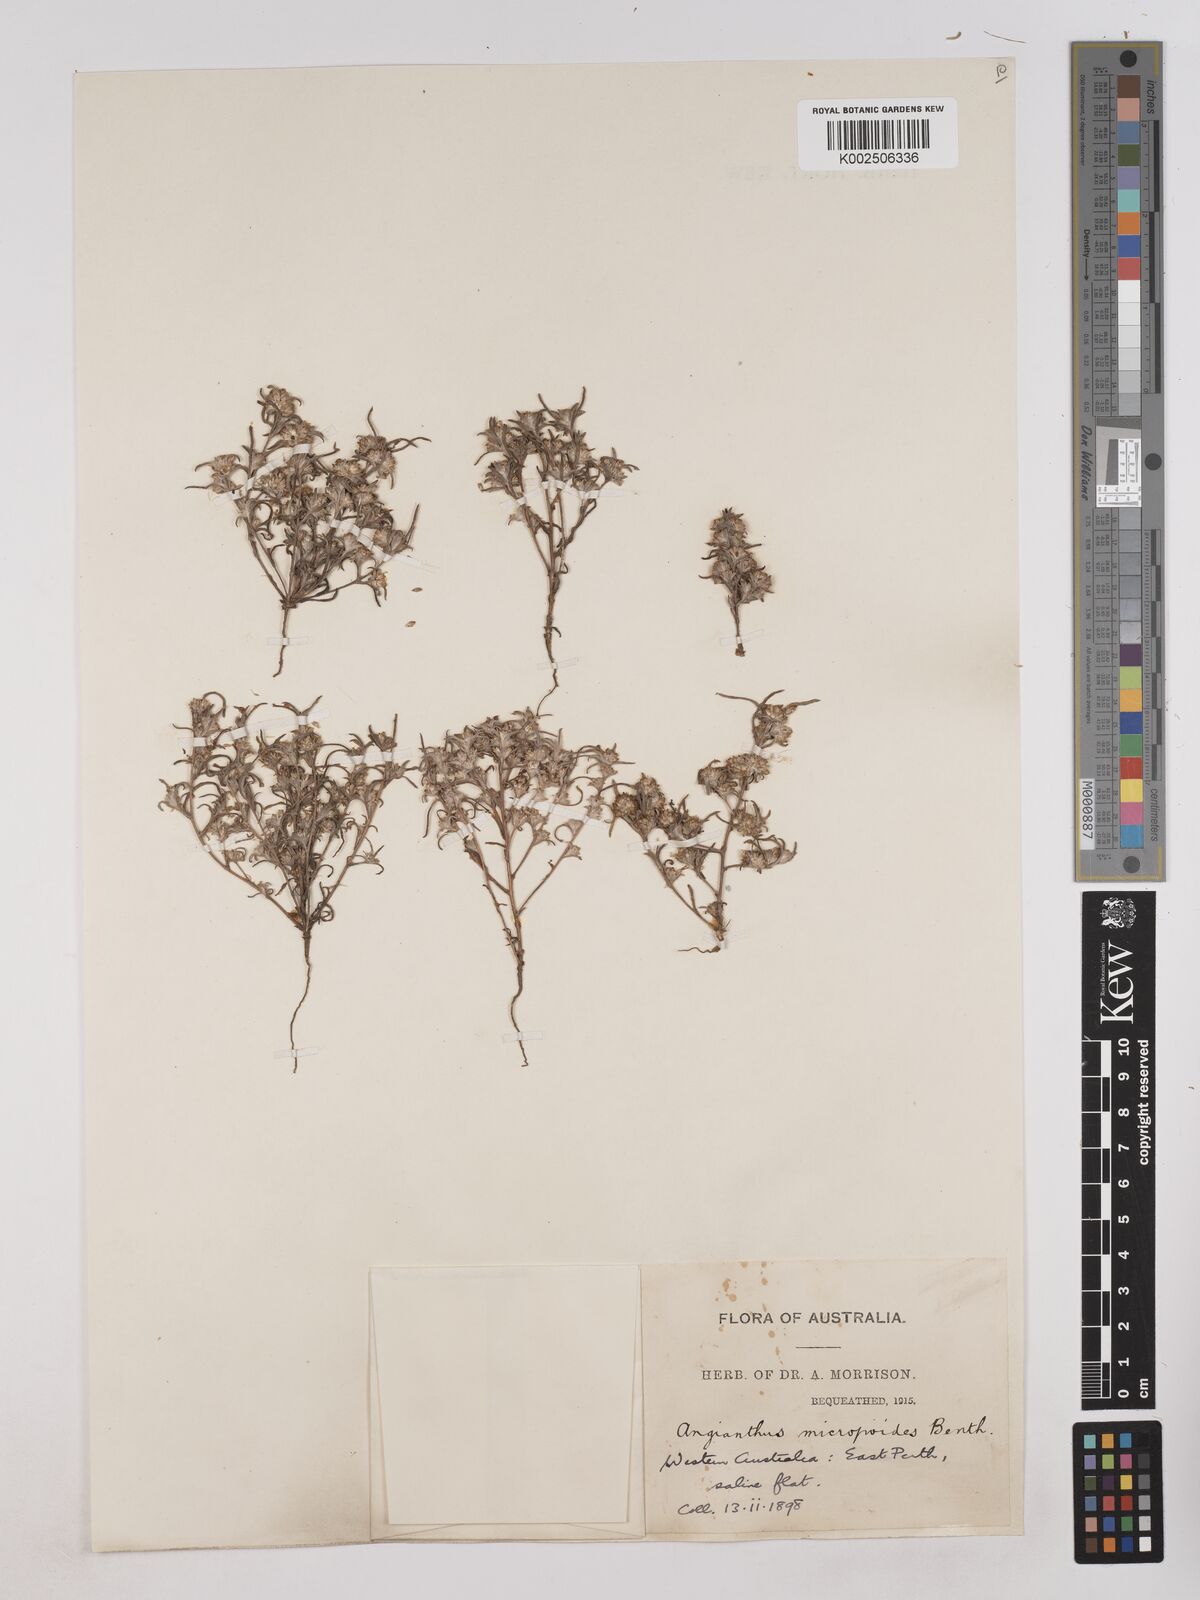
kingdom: Plantae
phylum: Tracheophyta
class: Magnoliopsida
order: Asterales
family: Asteraceae
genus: Angianthus
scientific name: Angianthus micropodioides
